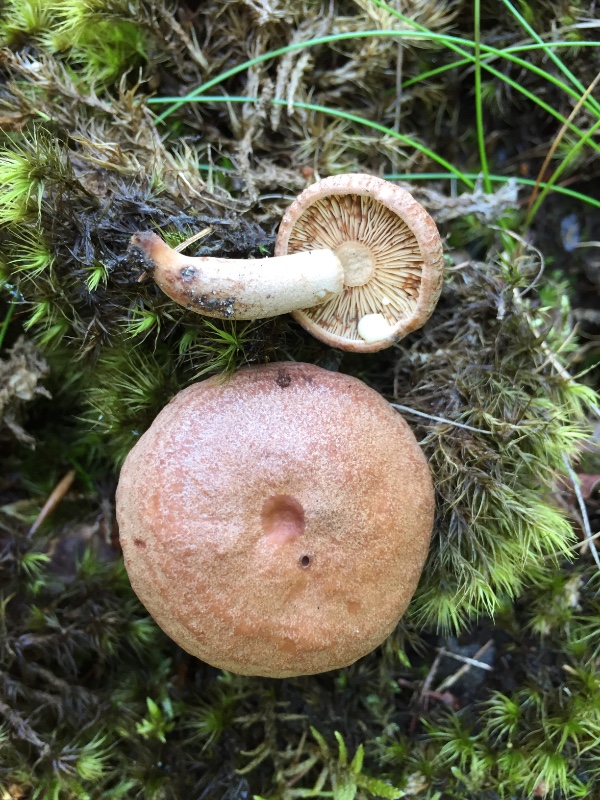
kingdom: Fungi
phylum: Basidiomycota
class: Agaricomycetes
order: Russulales
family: Russulaceae
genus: Lactarius
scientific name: Lactarius quietus
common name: ege-mælkehat
